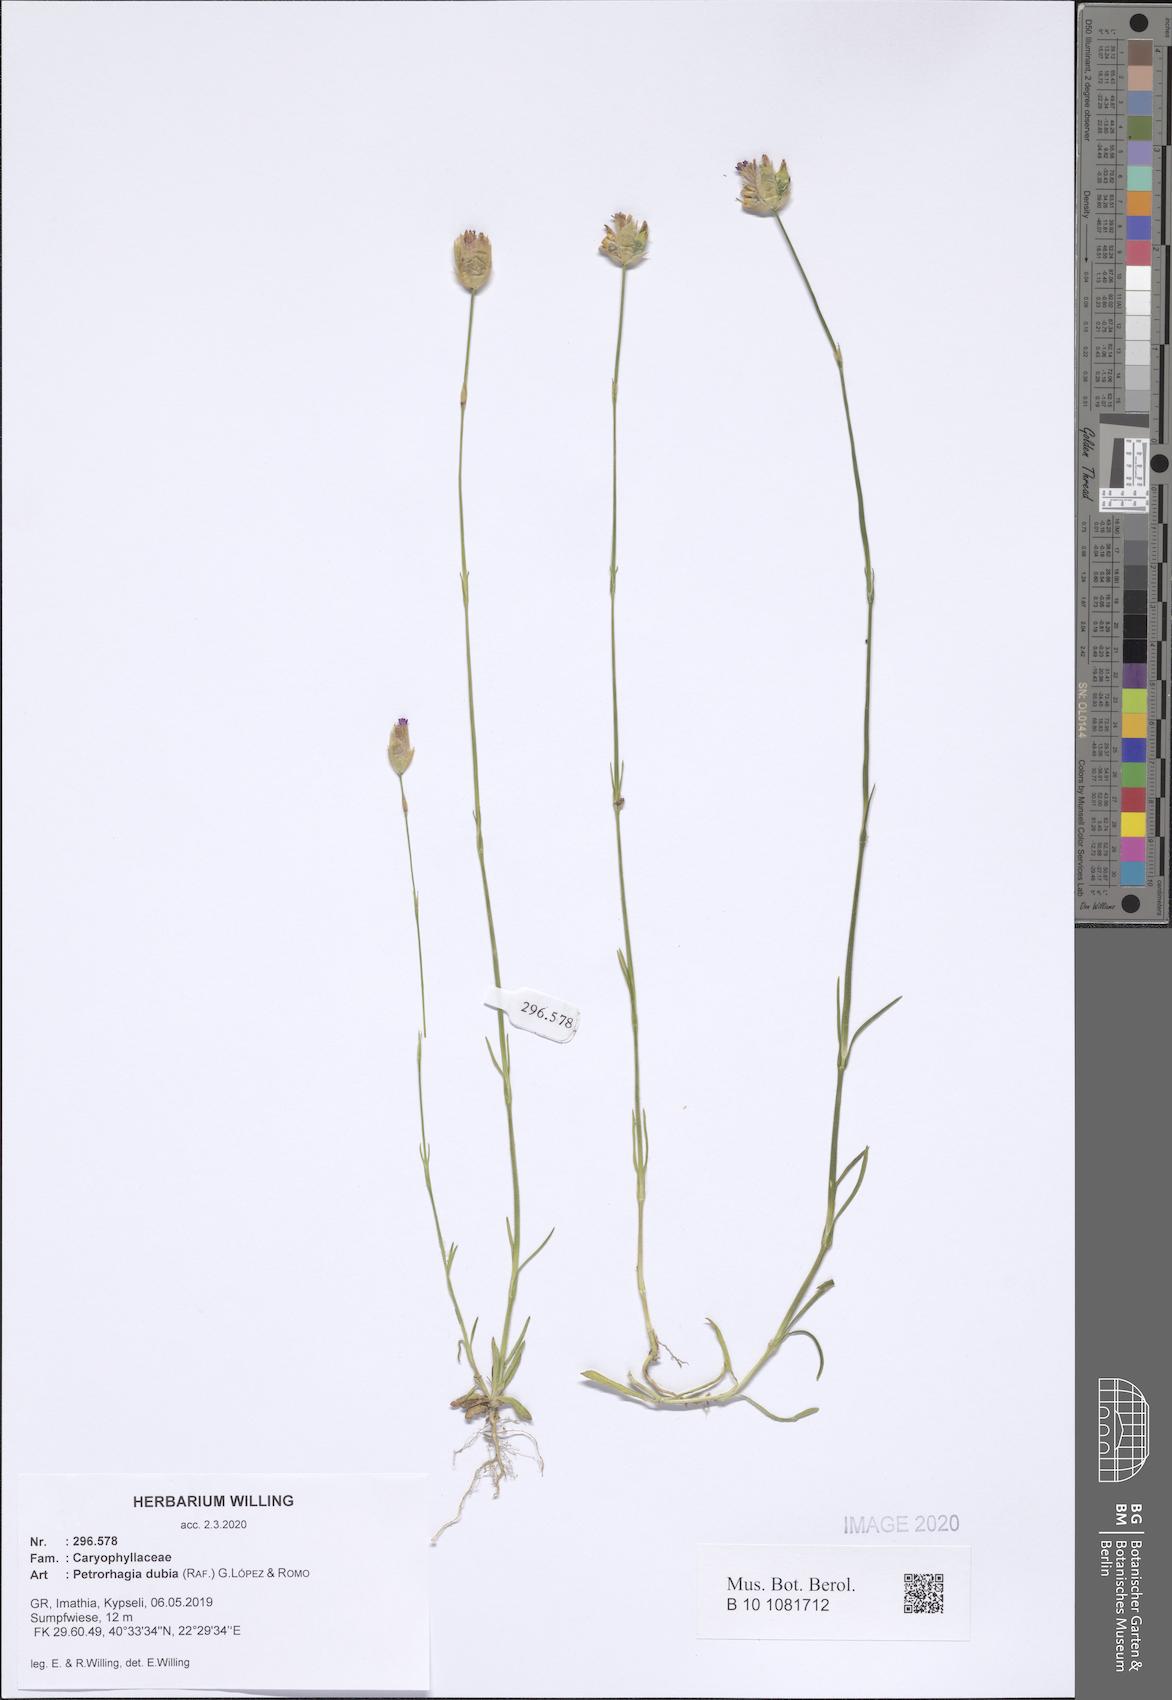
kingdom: Plantae
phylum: Tracheophyta
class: Magnoliopsida
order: Caryophyllales
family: Caryophyllaceae
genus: Petrorhagia
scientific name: Petrorhagia dubia
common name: Hairypink
